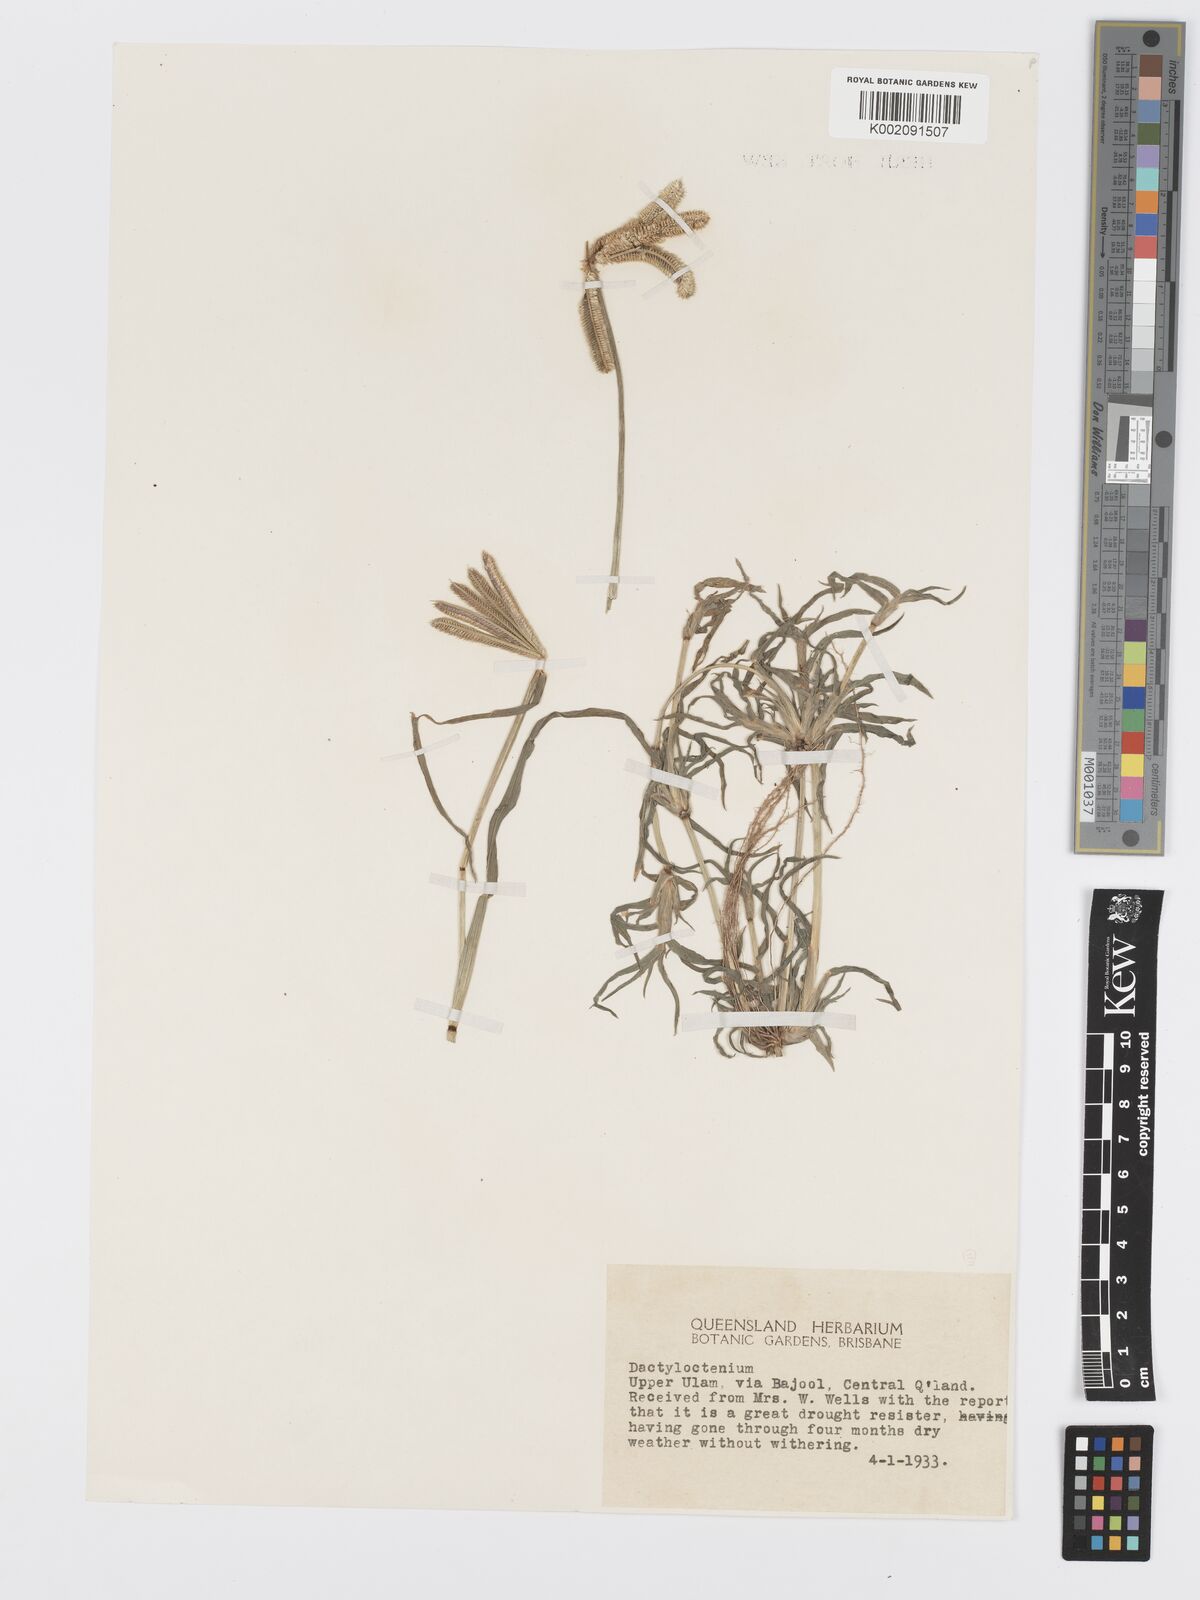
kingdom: Plantae
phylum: Tracheophyta
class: Liliopsida
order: Poales
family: Poaceae
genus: Dactyloctenium
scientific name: Dactyloctenium aegyptium
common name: Egyptian grass
